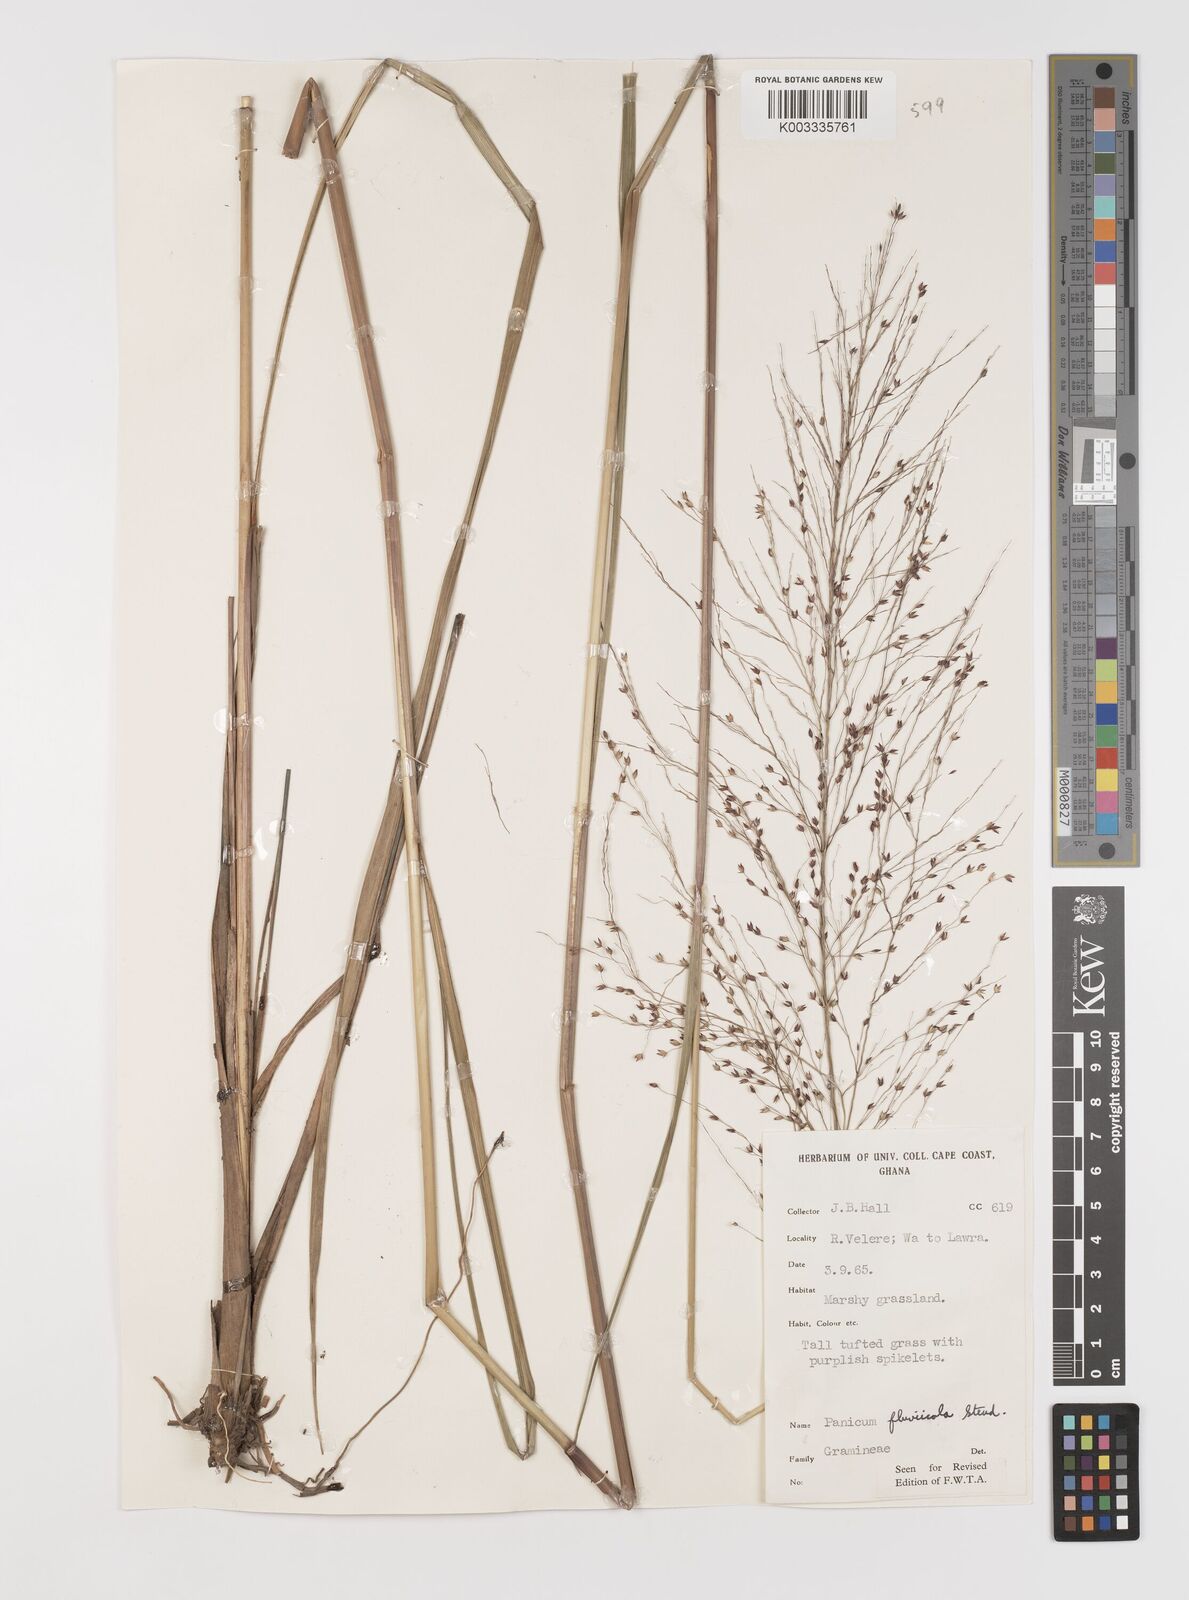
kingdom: Plantae
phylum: Tracheophyta
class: Liliopsida
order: Poales
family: Poaceae
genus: Panicum
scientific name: Panicum fluviicola
